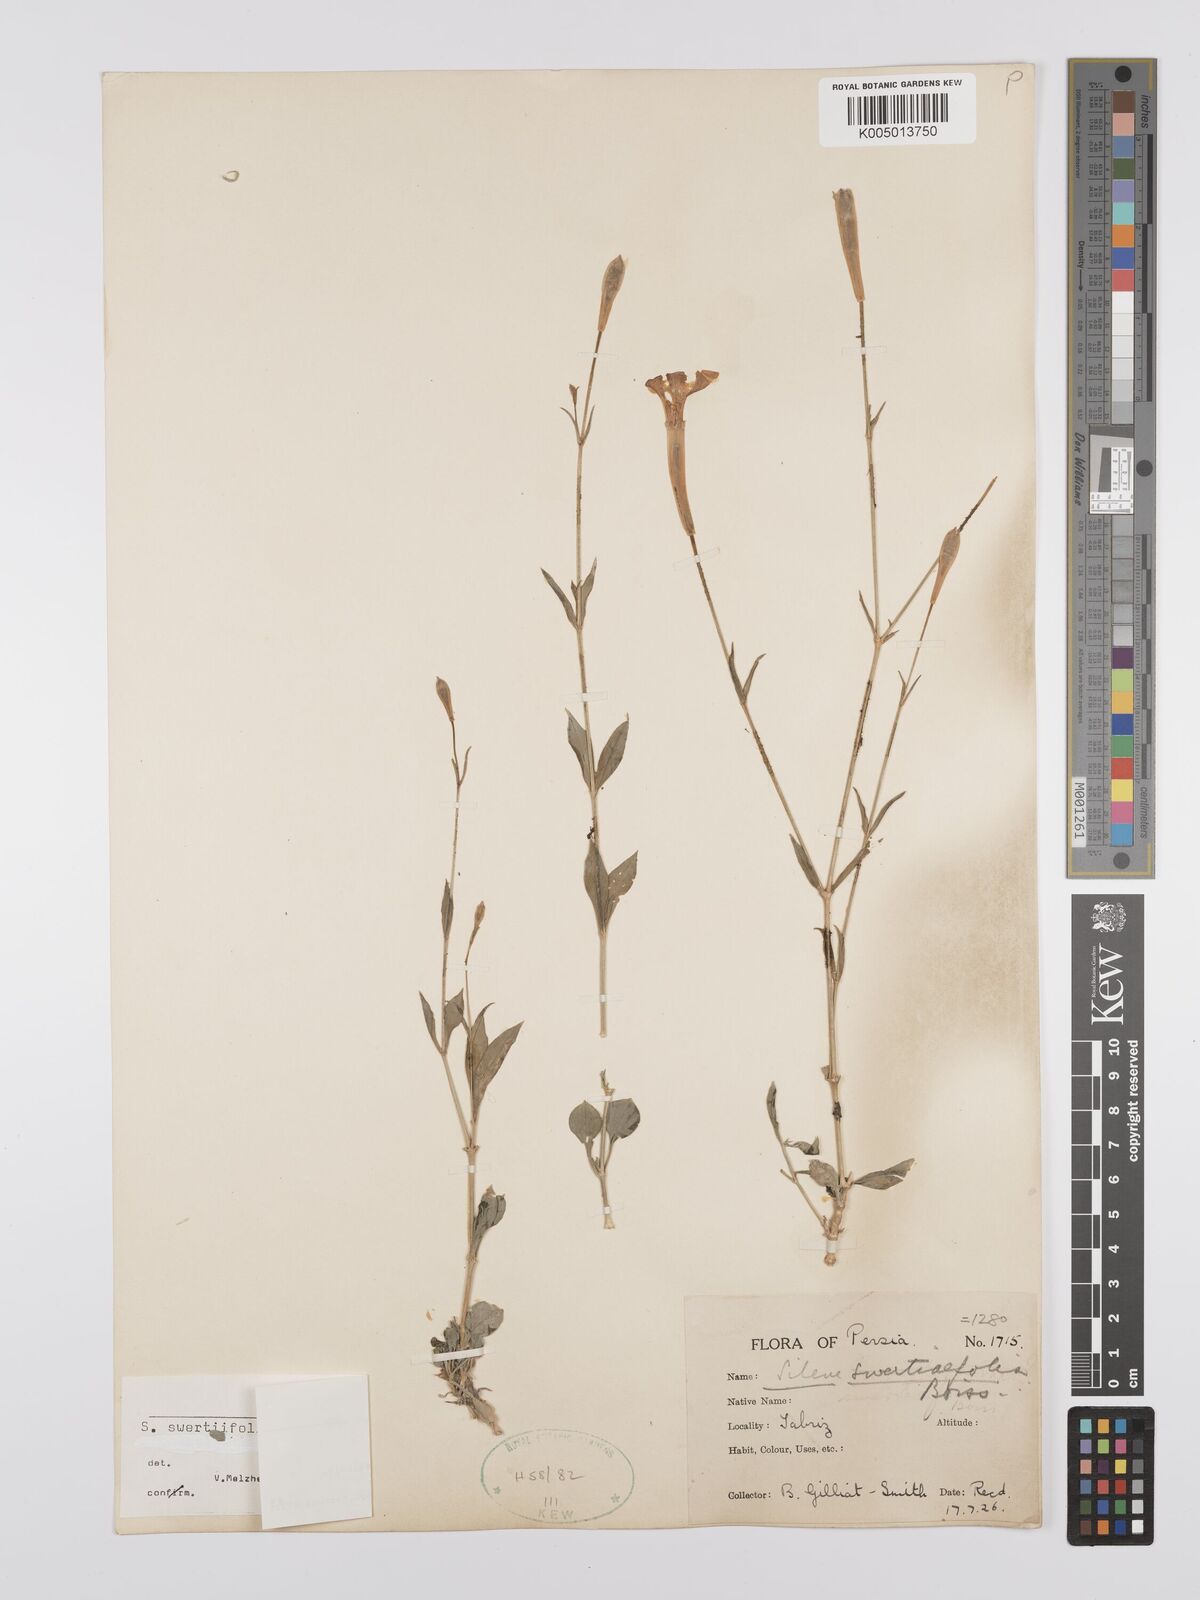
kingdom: Plantae
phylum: Tracheophyta
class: Magnoliopsida
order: Caryophyllales
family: Caryophyllaceae
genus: Silene
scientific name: Silene swertiifolia
